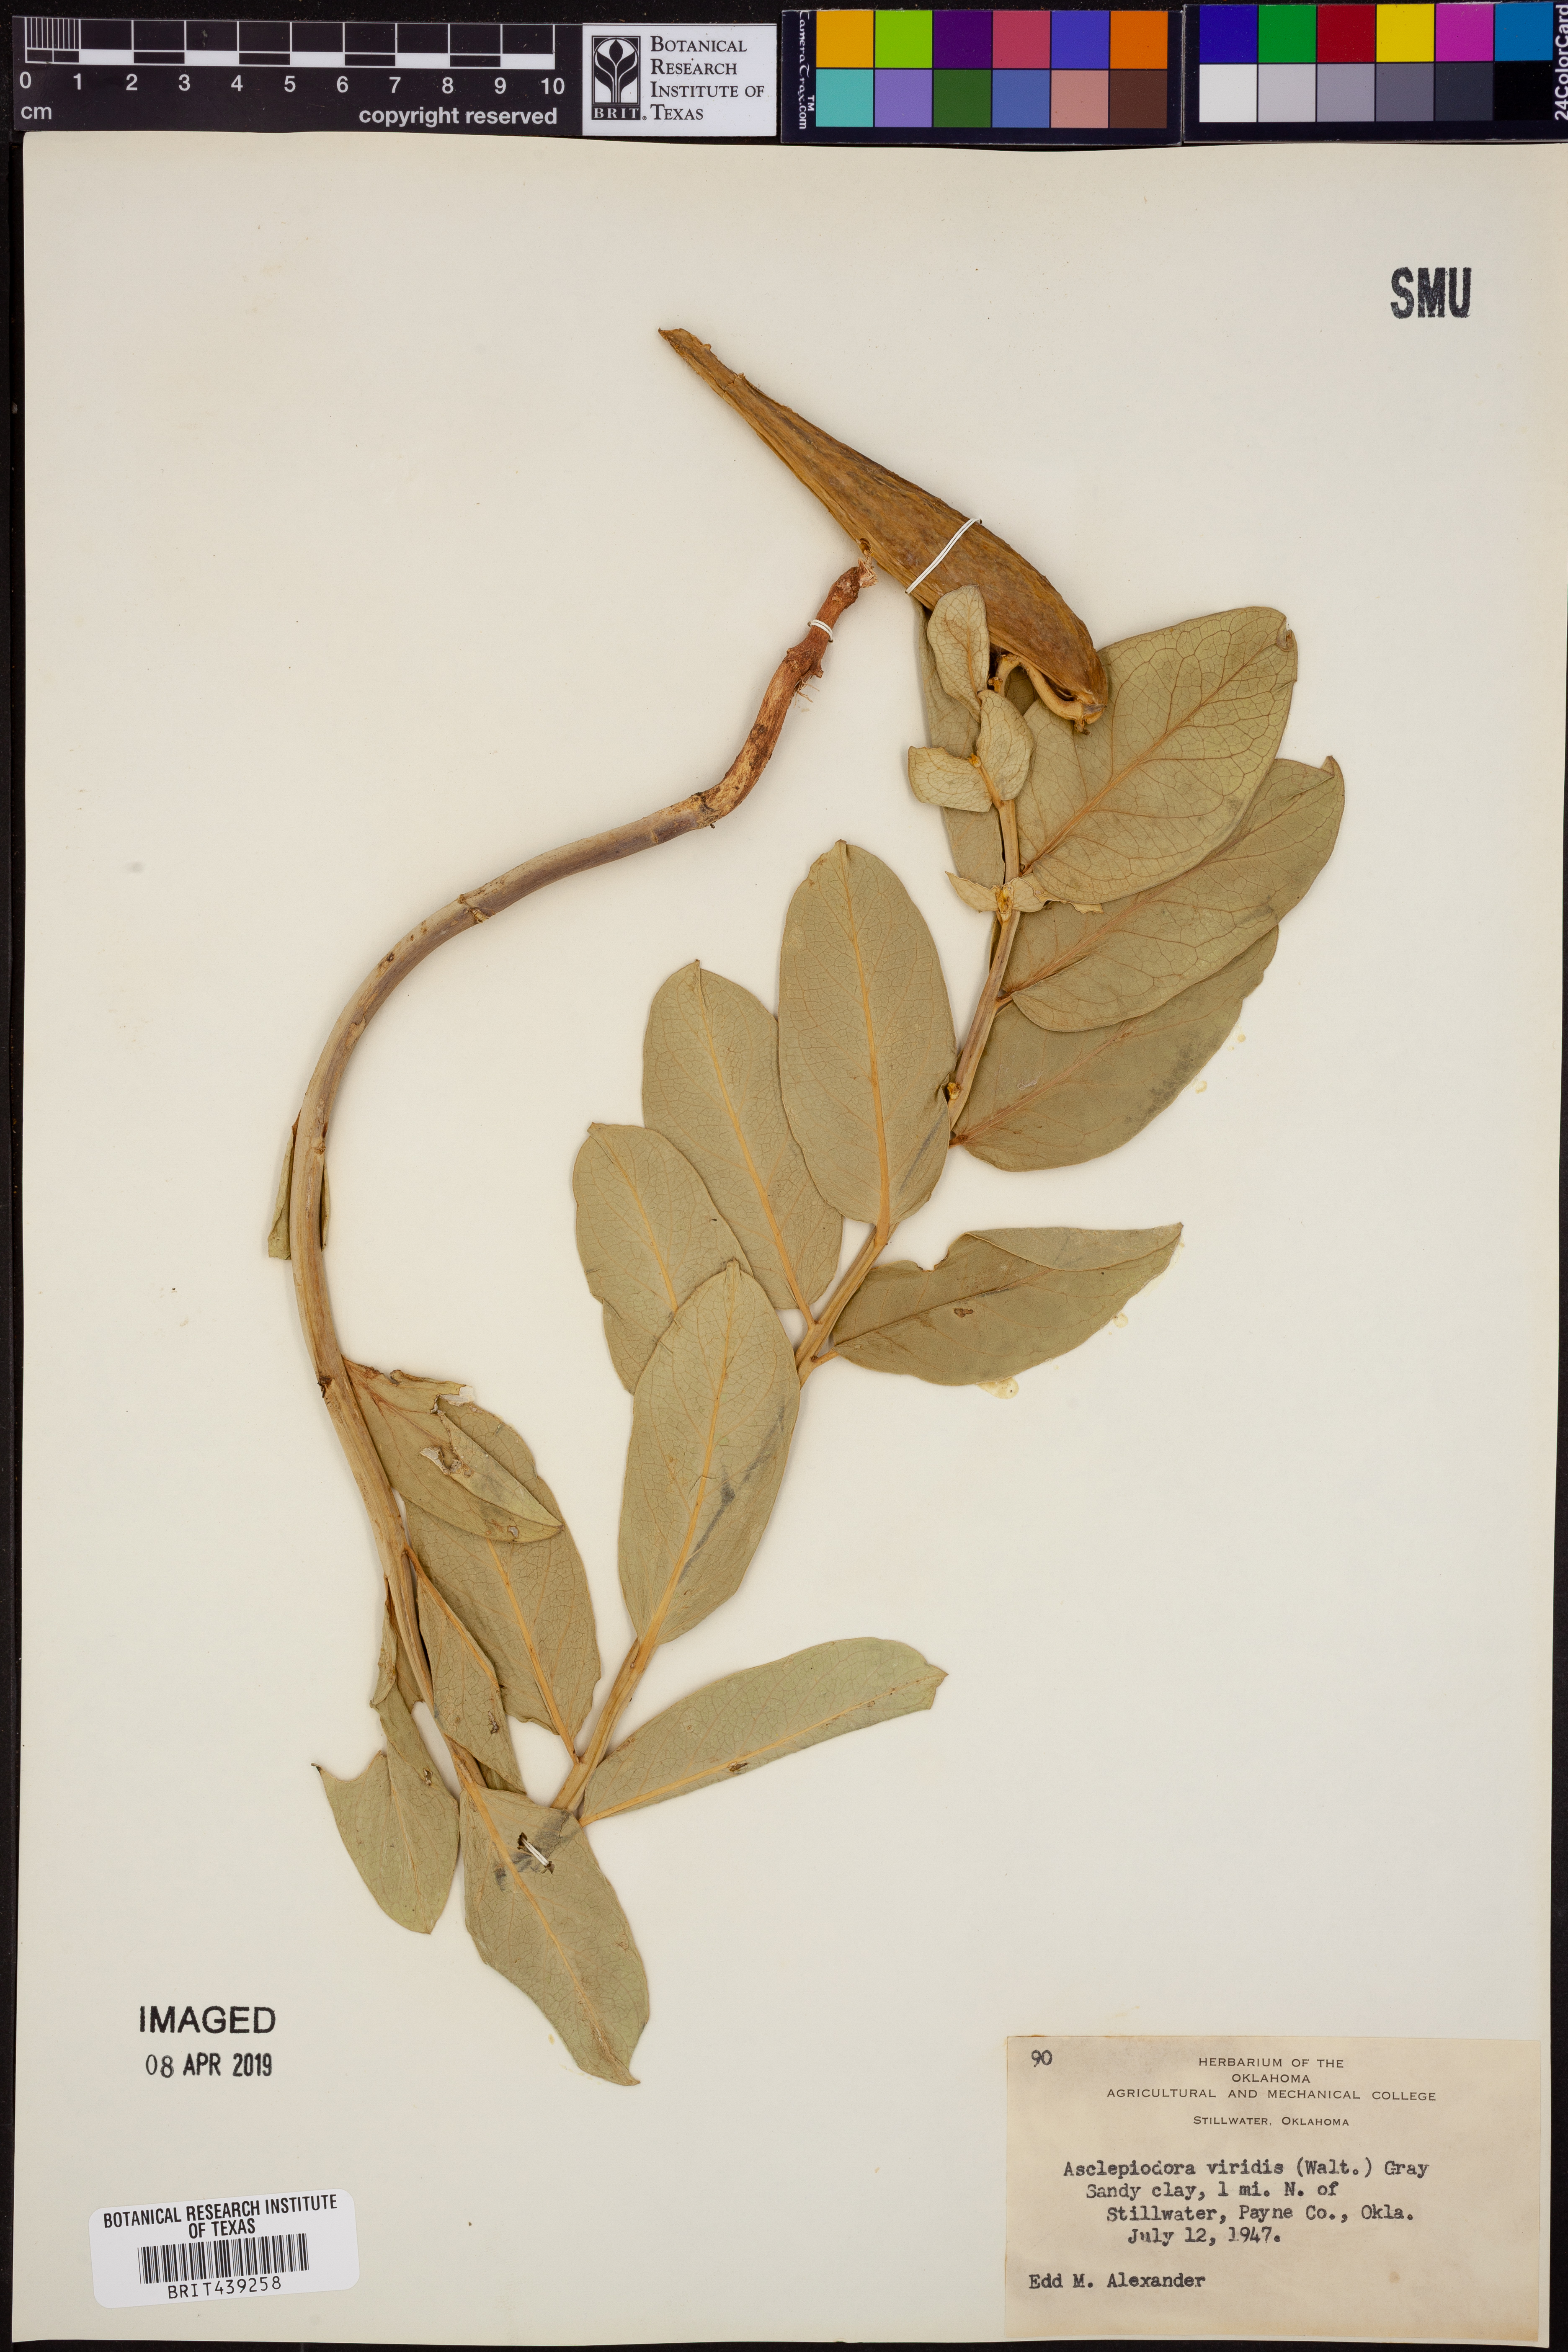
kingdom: Plantae
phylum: Tracheophyta
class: Magnoliopsida
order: Gentianales
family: Apocynaceae
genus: Asclepias
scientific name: Asclepias viridis
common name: Antelope-horns
